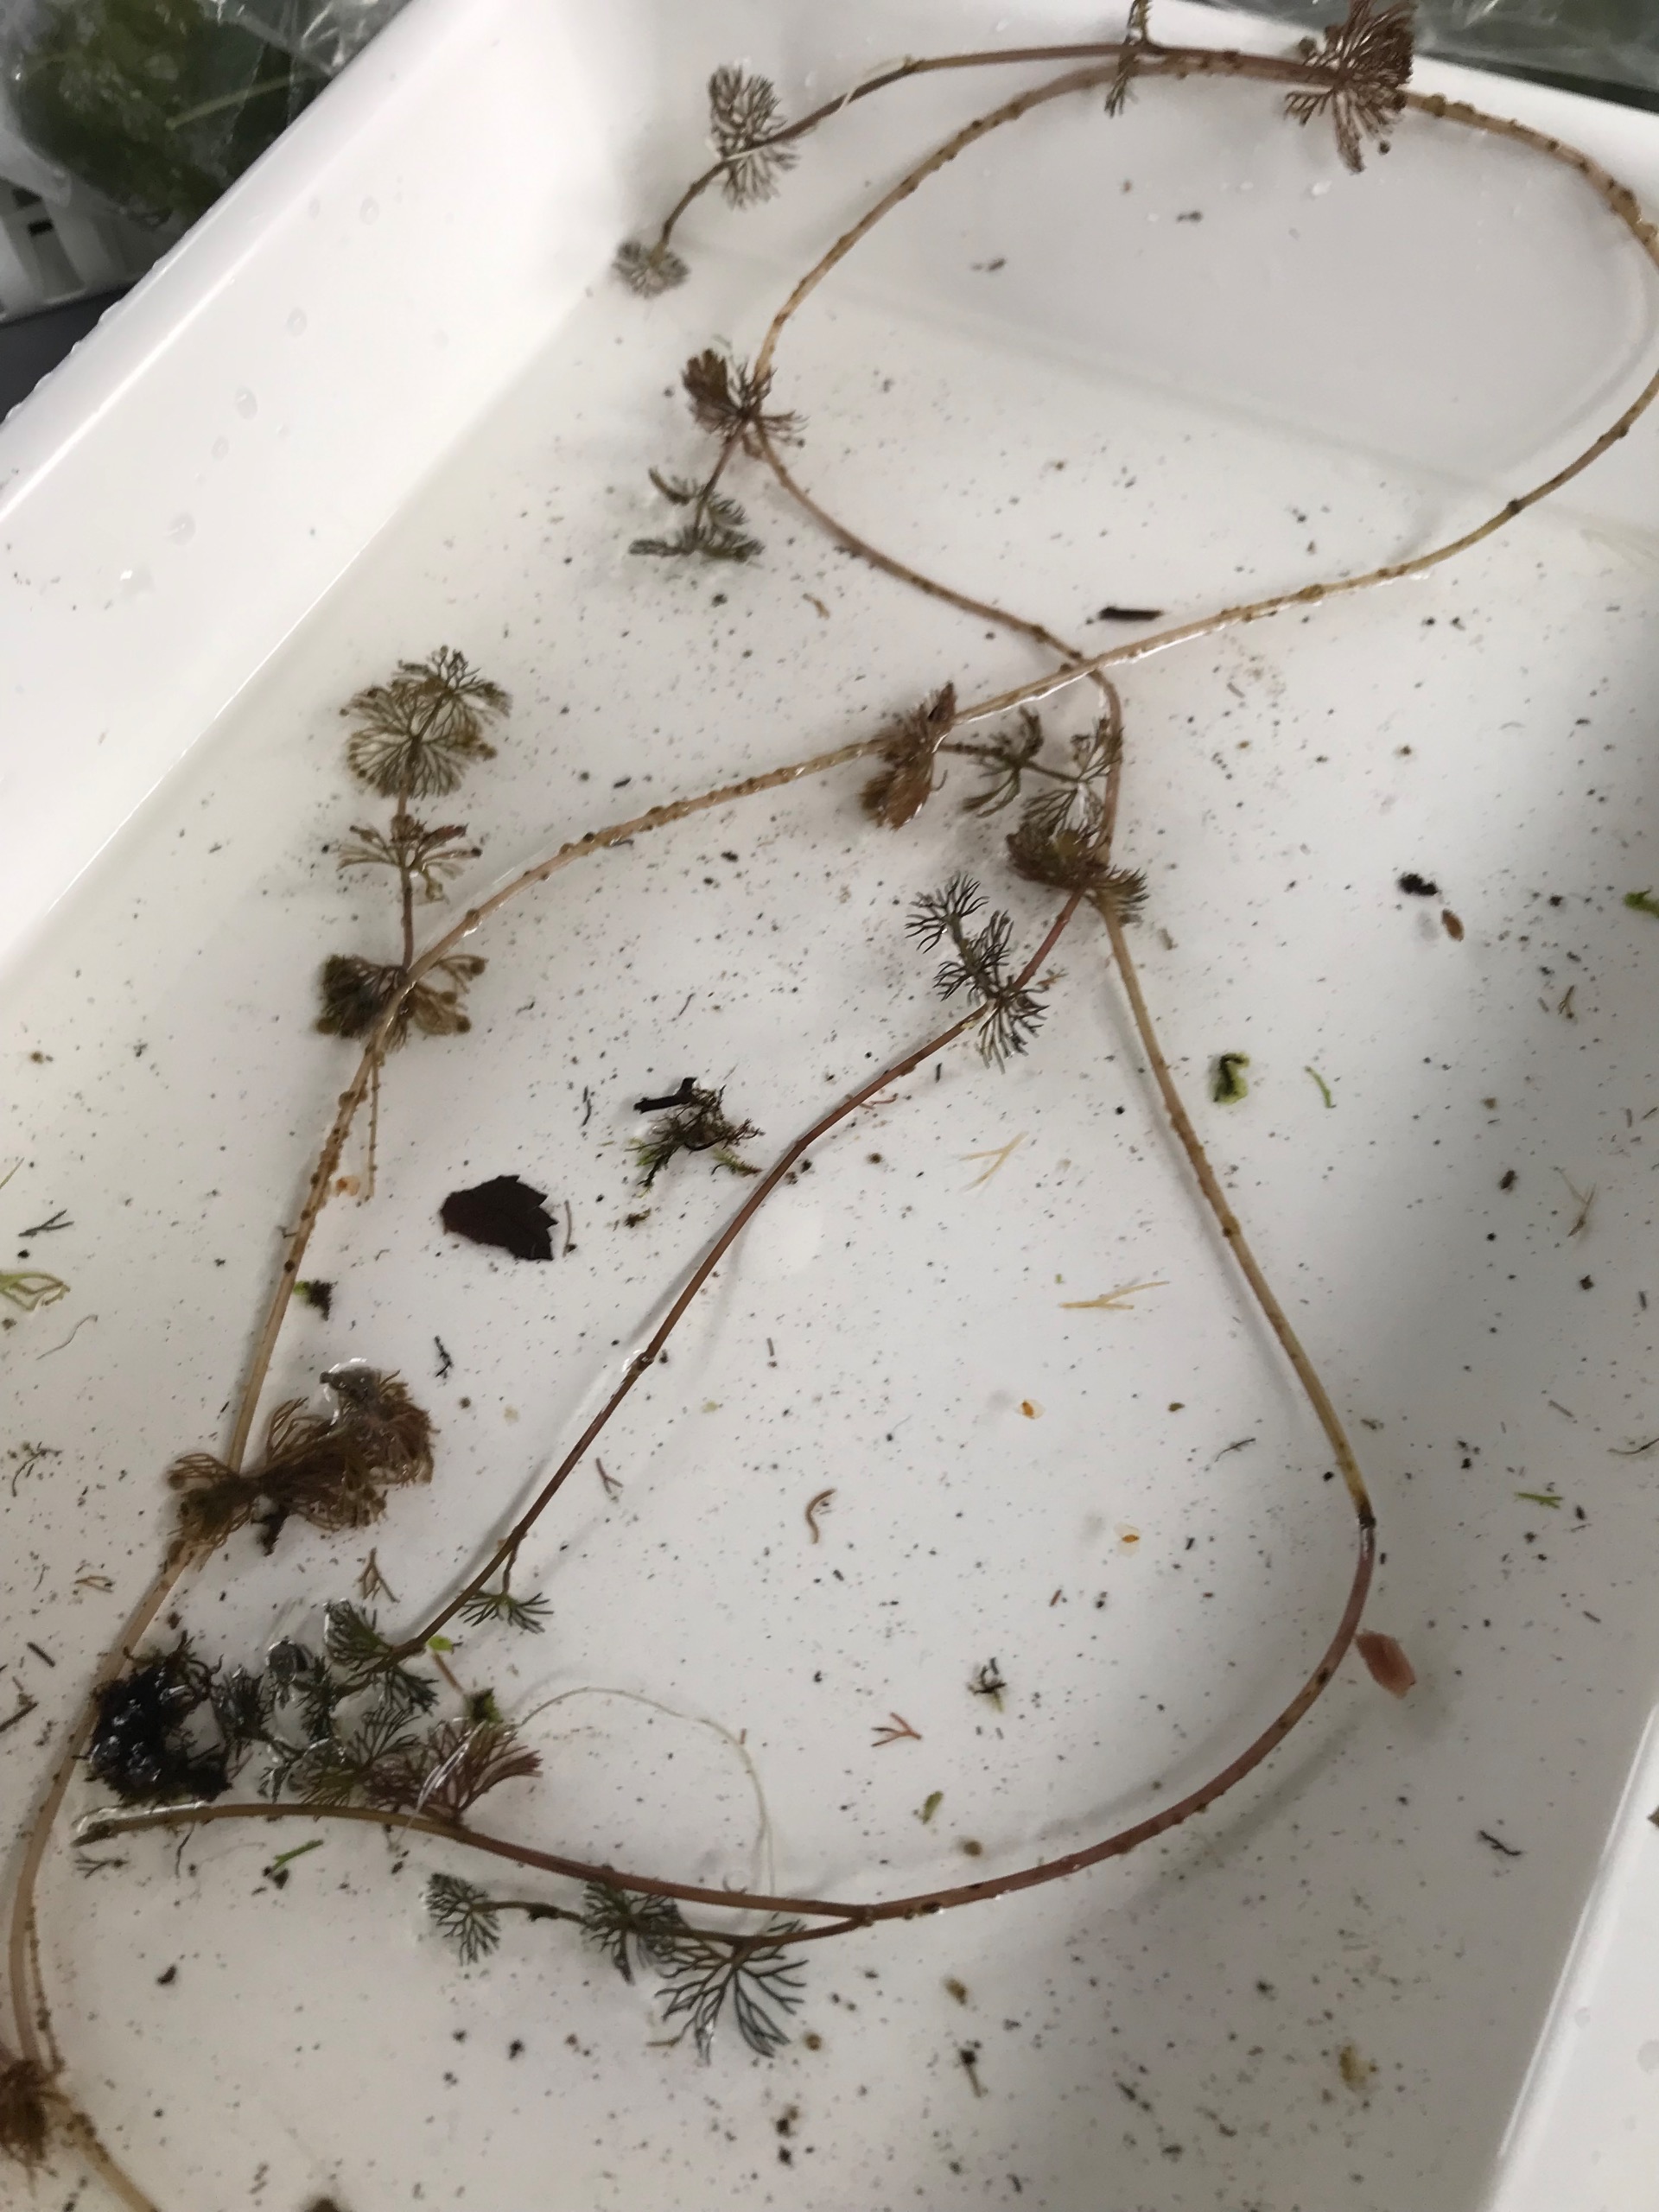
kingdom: Plantae
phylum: Tracheophyta
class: Magnoliopsida
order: Ranunculales
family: Ranunculaceae
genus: Ranunculus
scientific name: Ranunculus circinatus
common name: Kredsbladet vandranunkel
